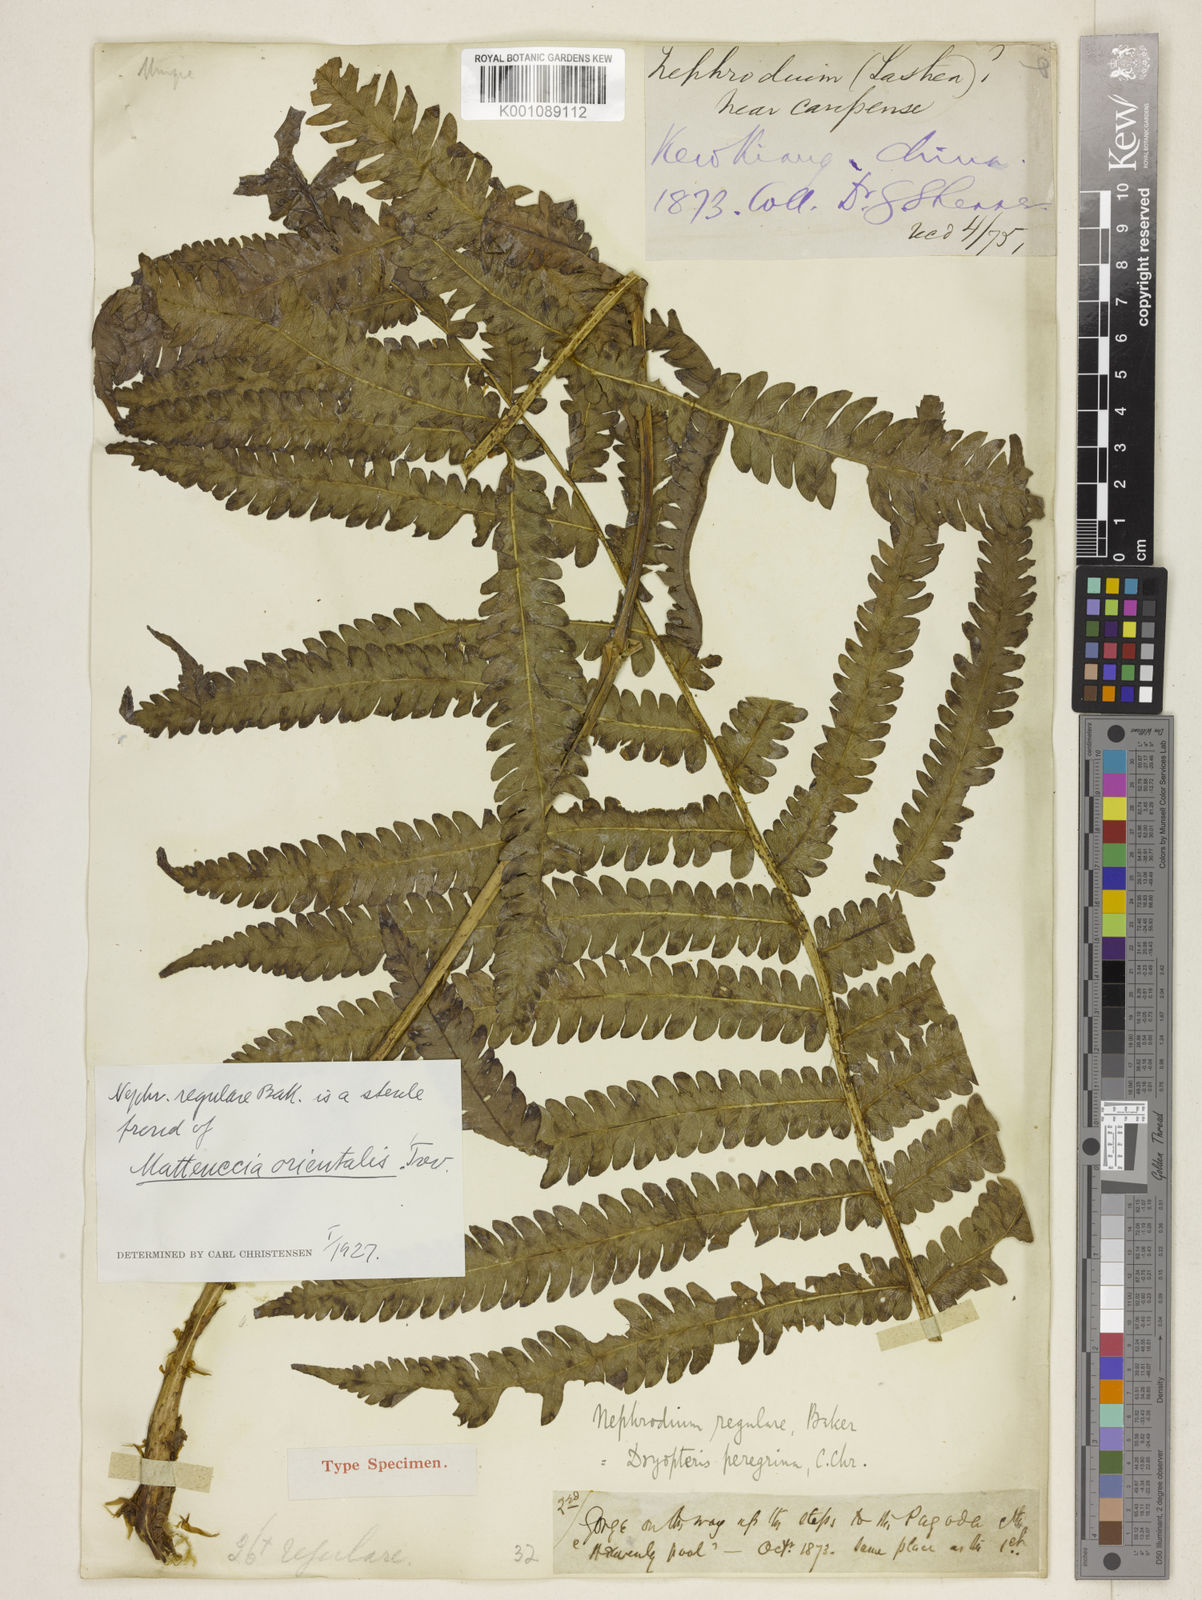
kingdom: Plantae
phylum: Tracheophyta
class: Polypodiopsida
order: Polypodiales
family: Onocleaceae
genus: Pentarhizidium
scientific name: Pentarhizidium orientale
